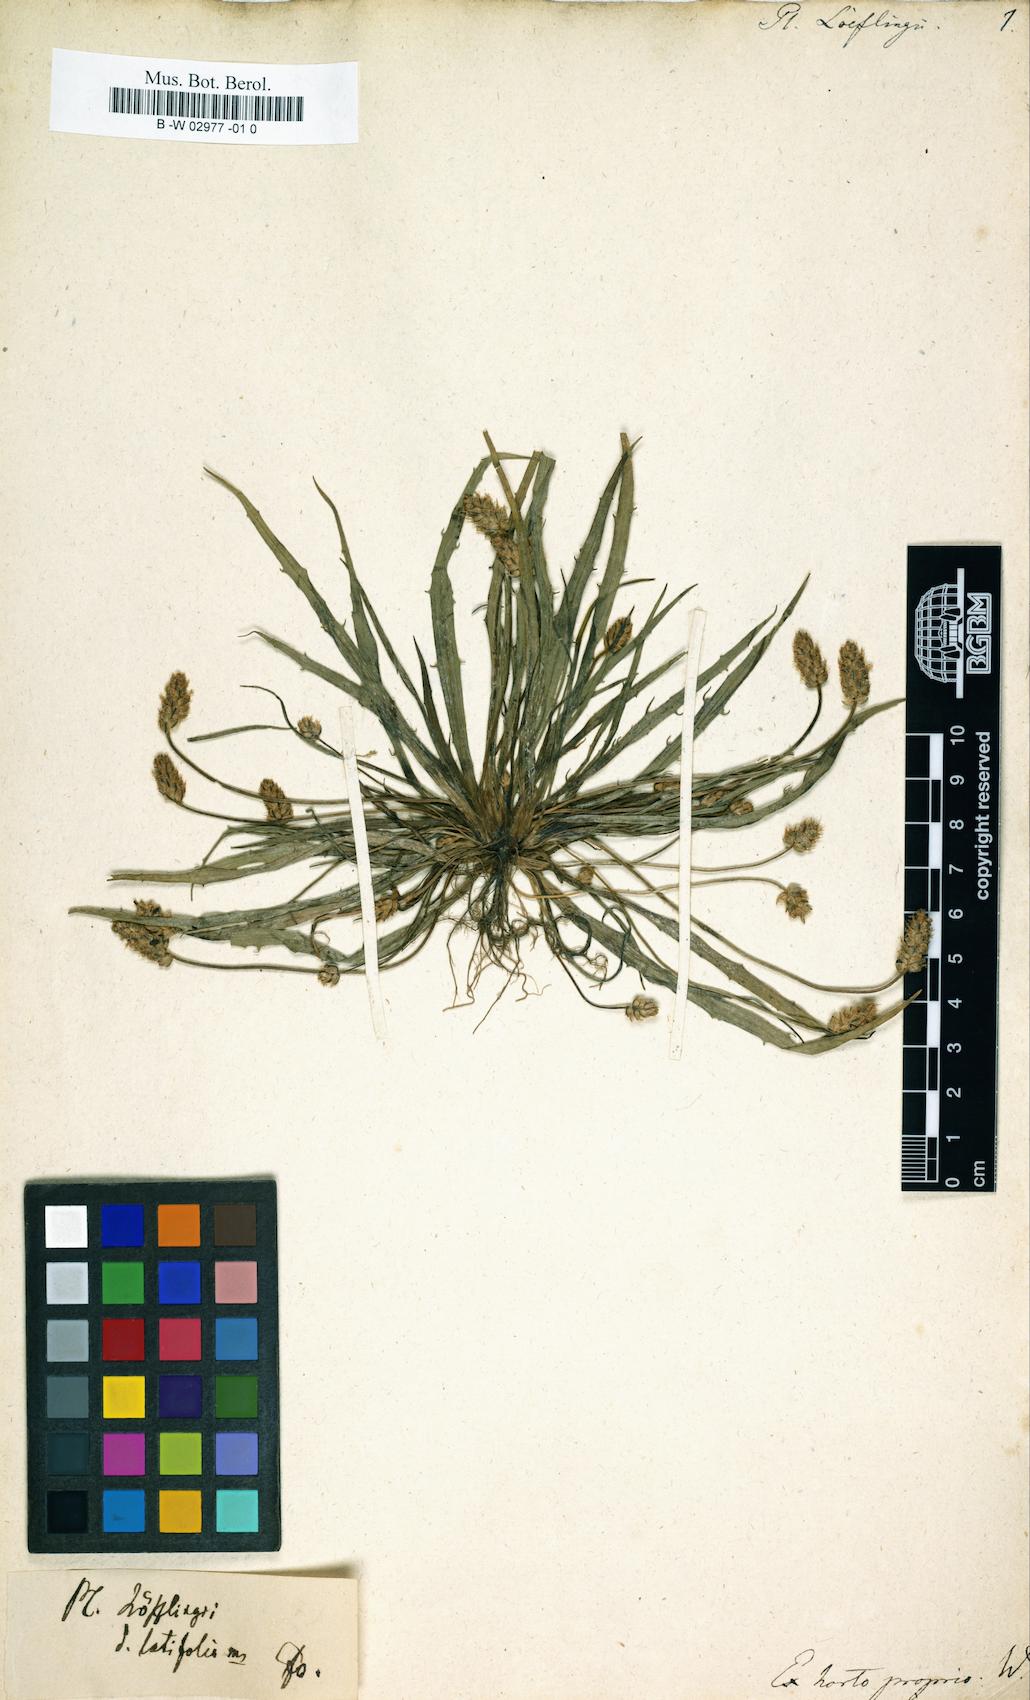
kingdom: Plantae
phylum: Tracheophyta
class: Magnoliopsida
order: Lamiales
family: Plantaginaceae
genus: Plantago
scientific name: Plantago loeflingii
